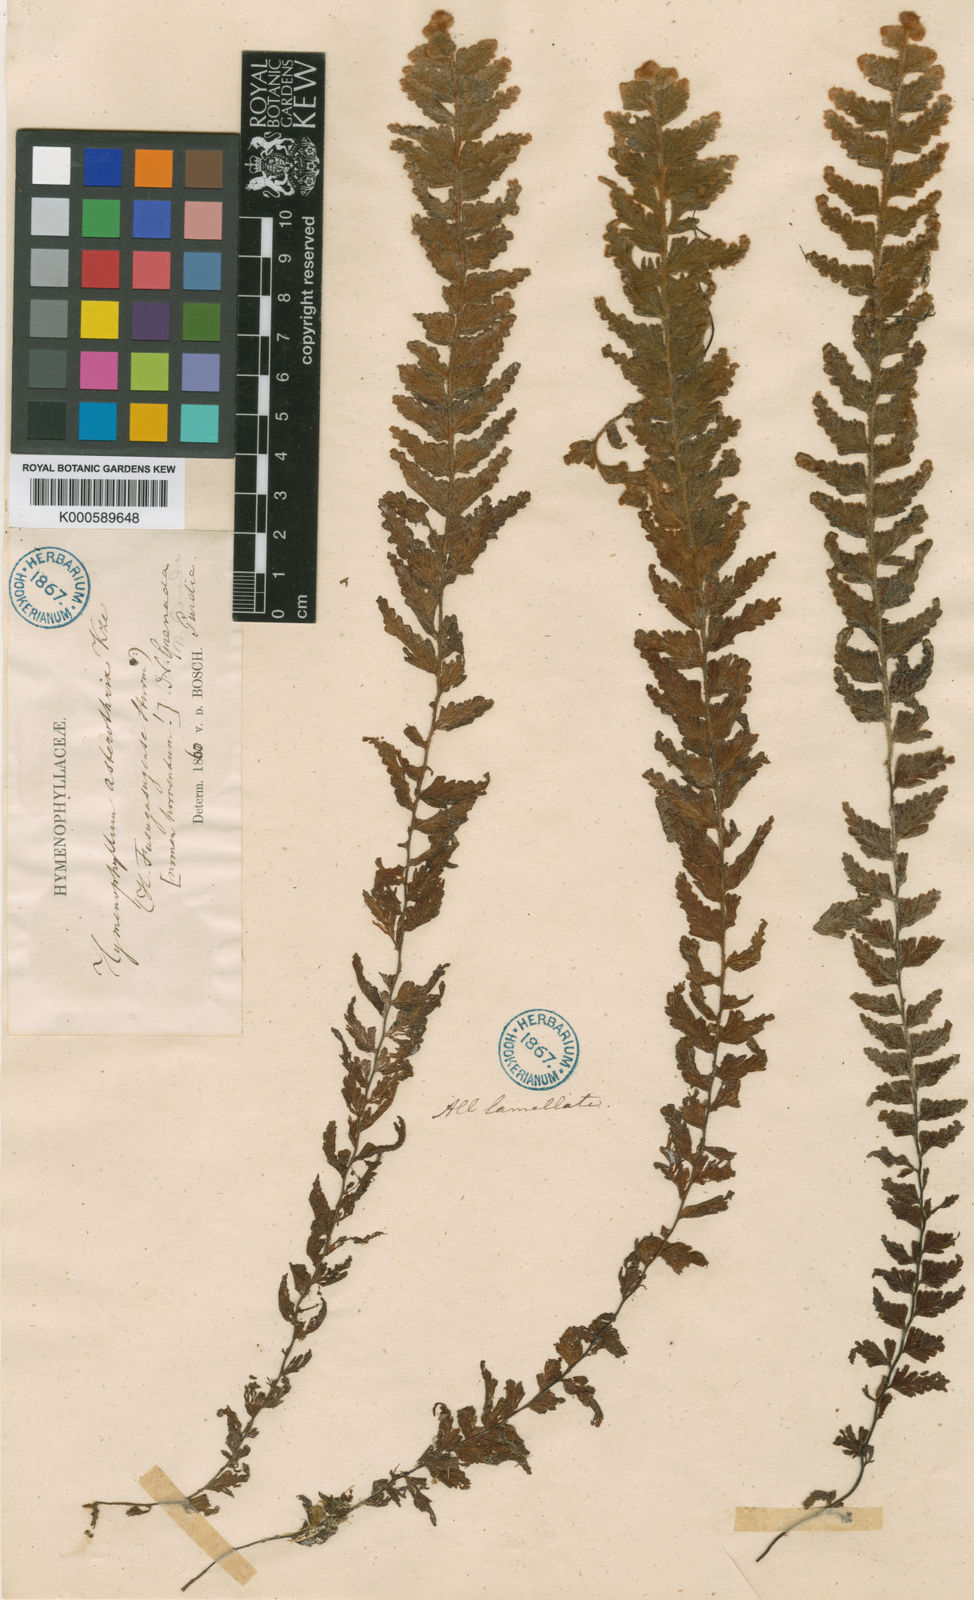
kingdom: Plantae
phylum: Tracheophyta
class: Polypodiopsida
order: Hymenophyllales
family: Hymenophyllaceae
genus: Hymenophyllum
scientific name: Hymenophyllum tomentosum
